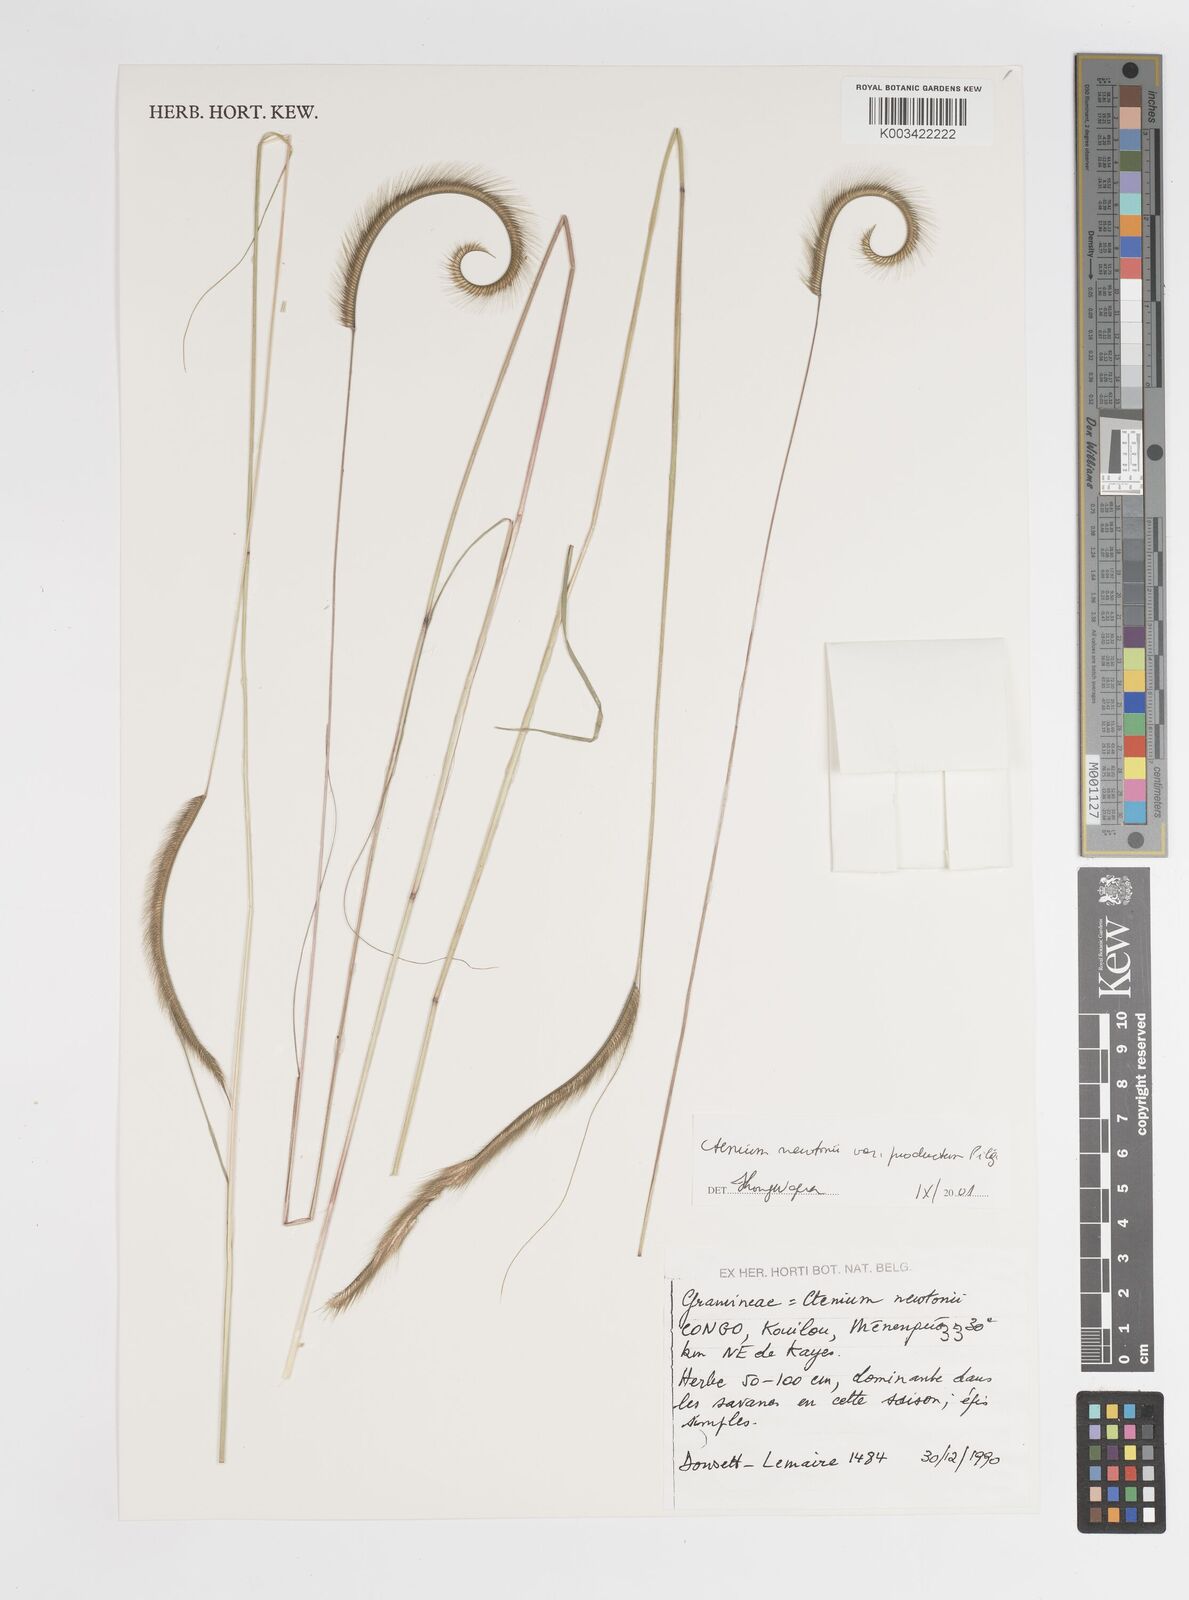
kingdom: Plantae
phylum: Tracheophyta
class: Liliopsida
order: Poales
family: Poaceae
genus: Ctenium
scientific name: Ctenium newtonii
